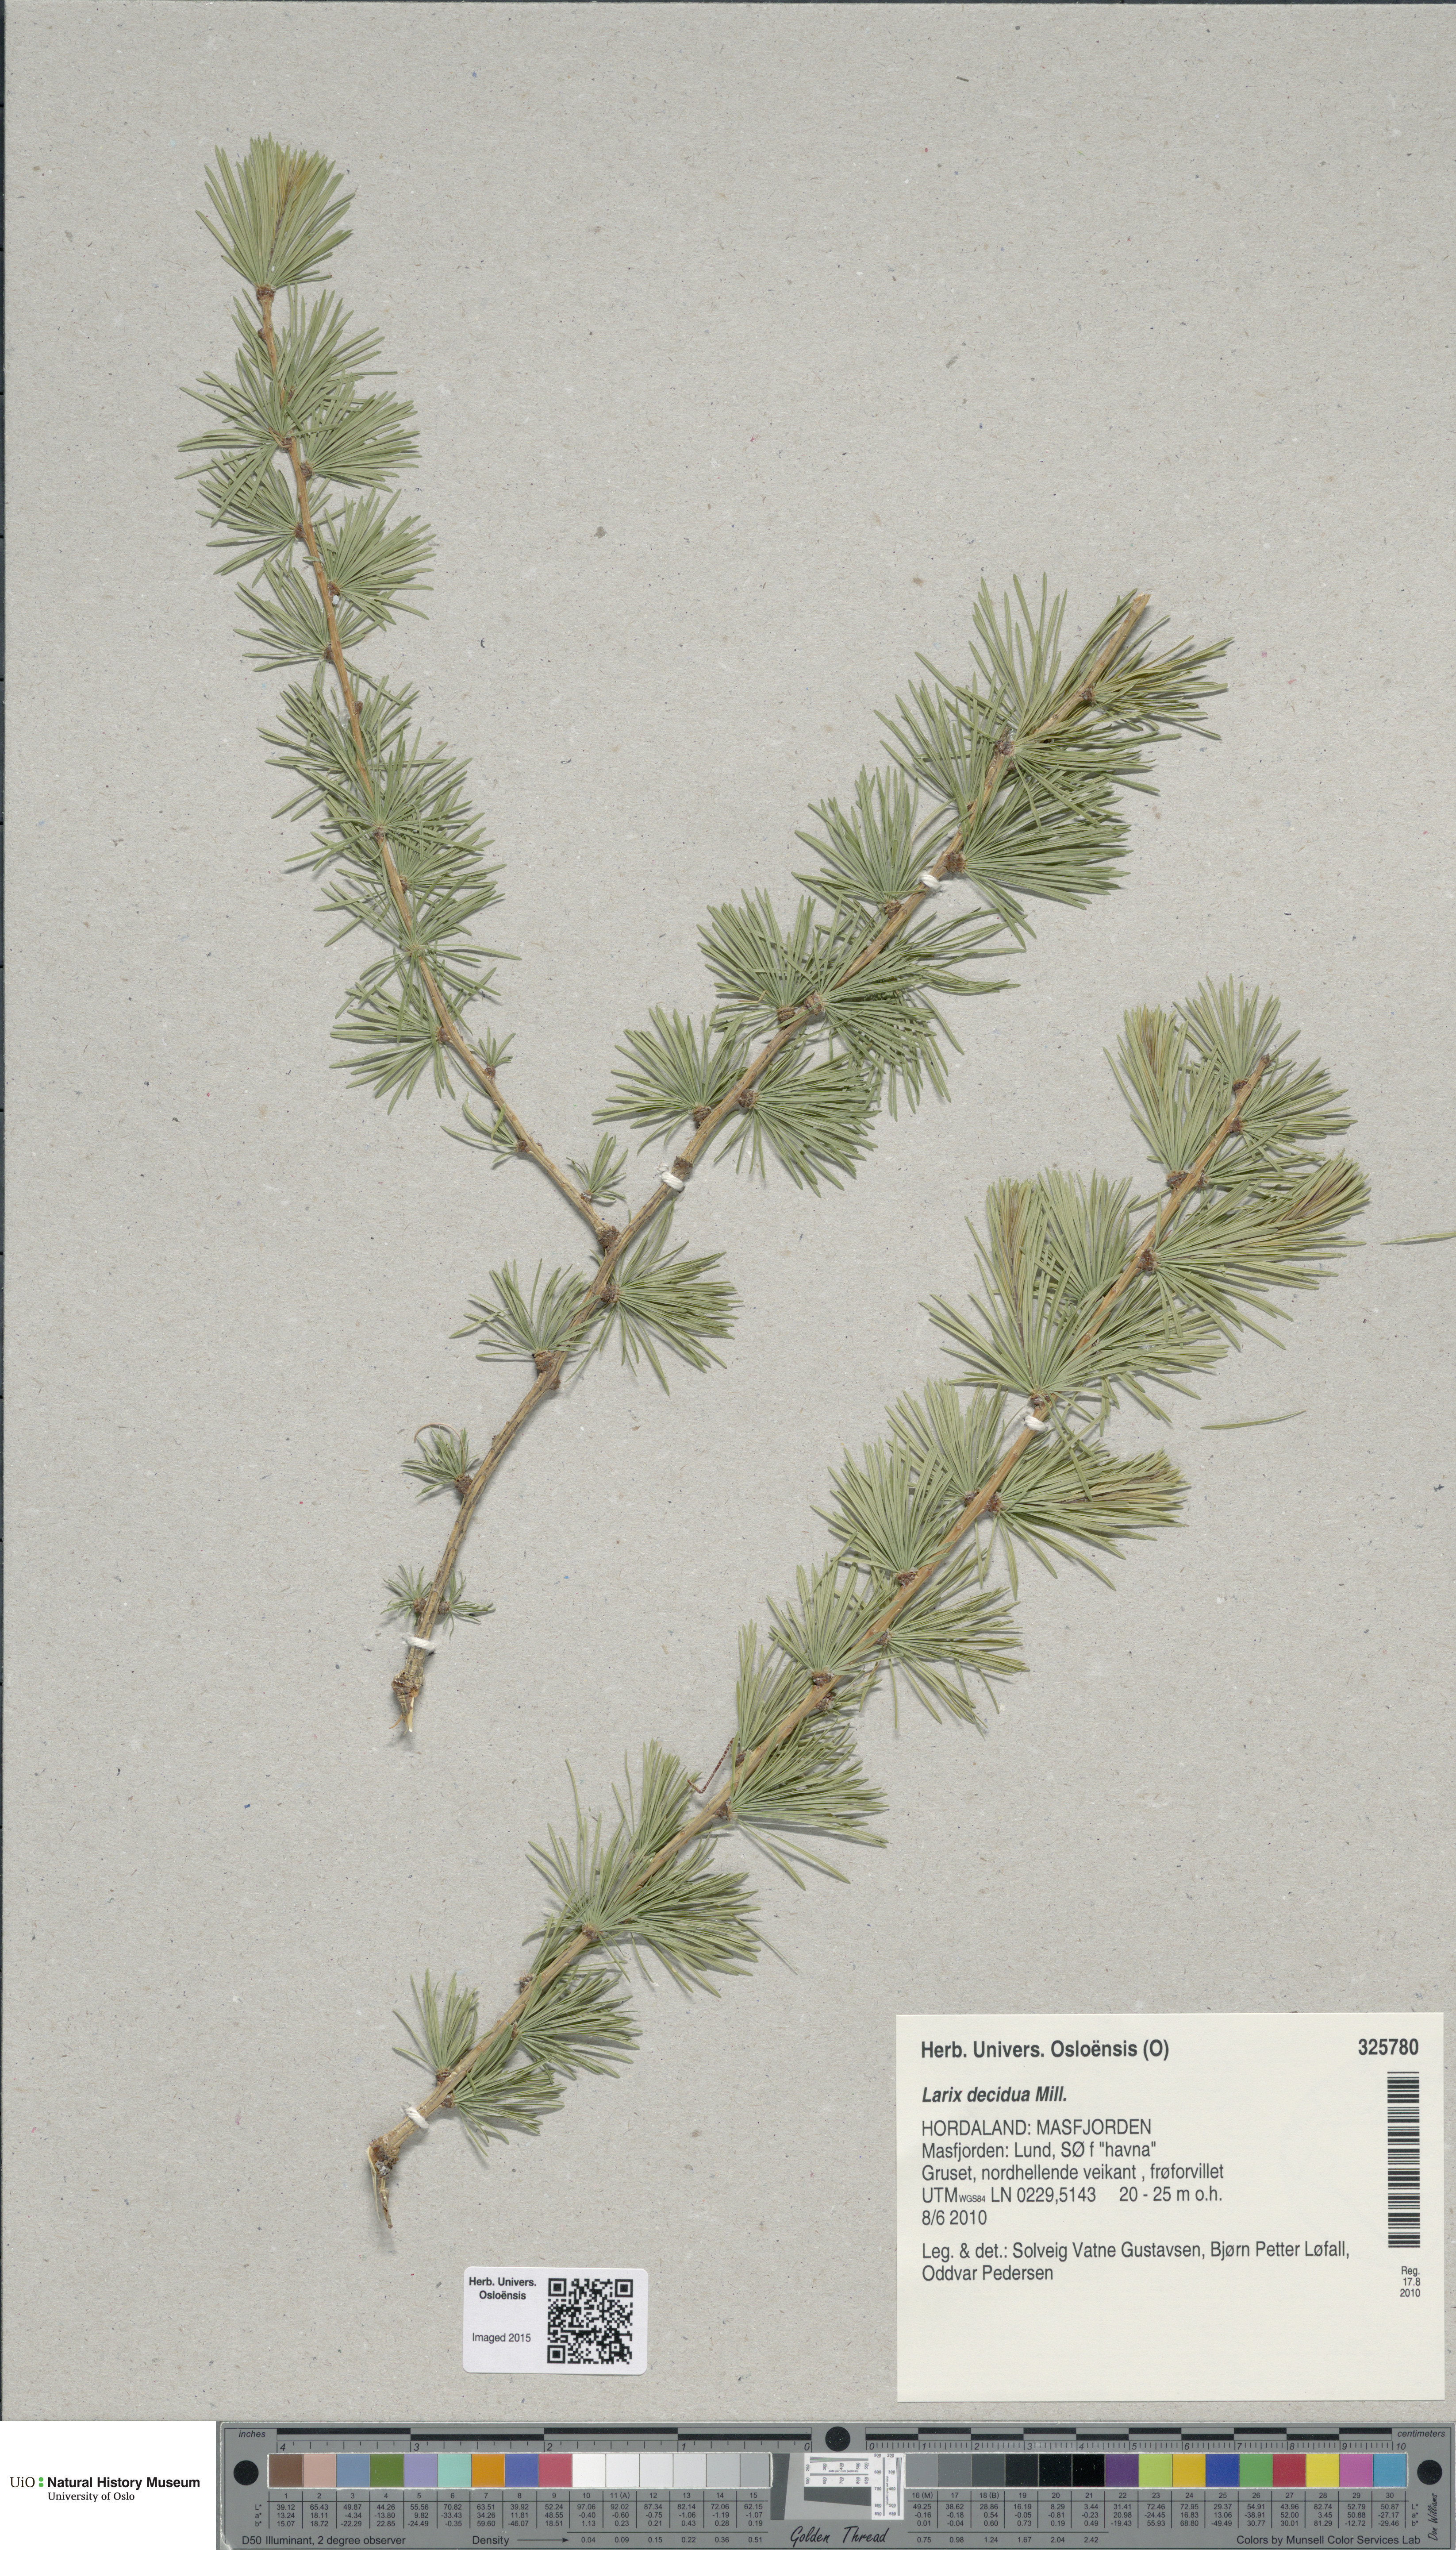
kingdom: Plantae
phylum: Tracheophyta
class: Pinopsida
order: Pinales
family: Pinaceae
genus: Larix
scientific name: Larix decidua
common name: European larch
